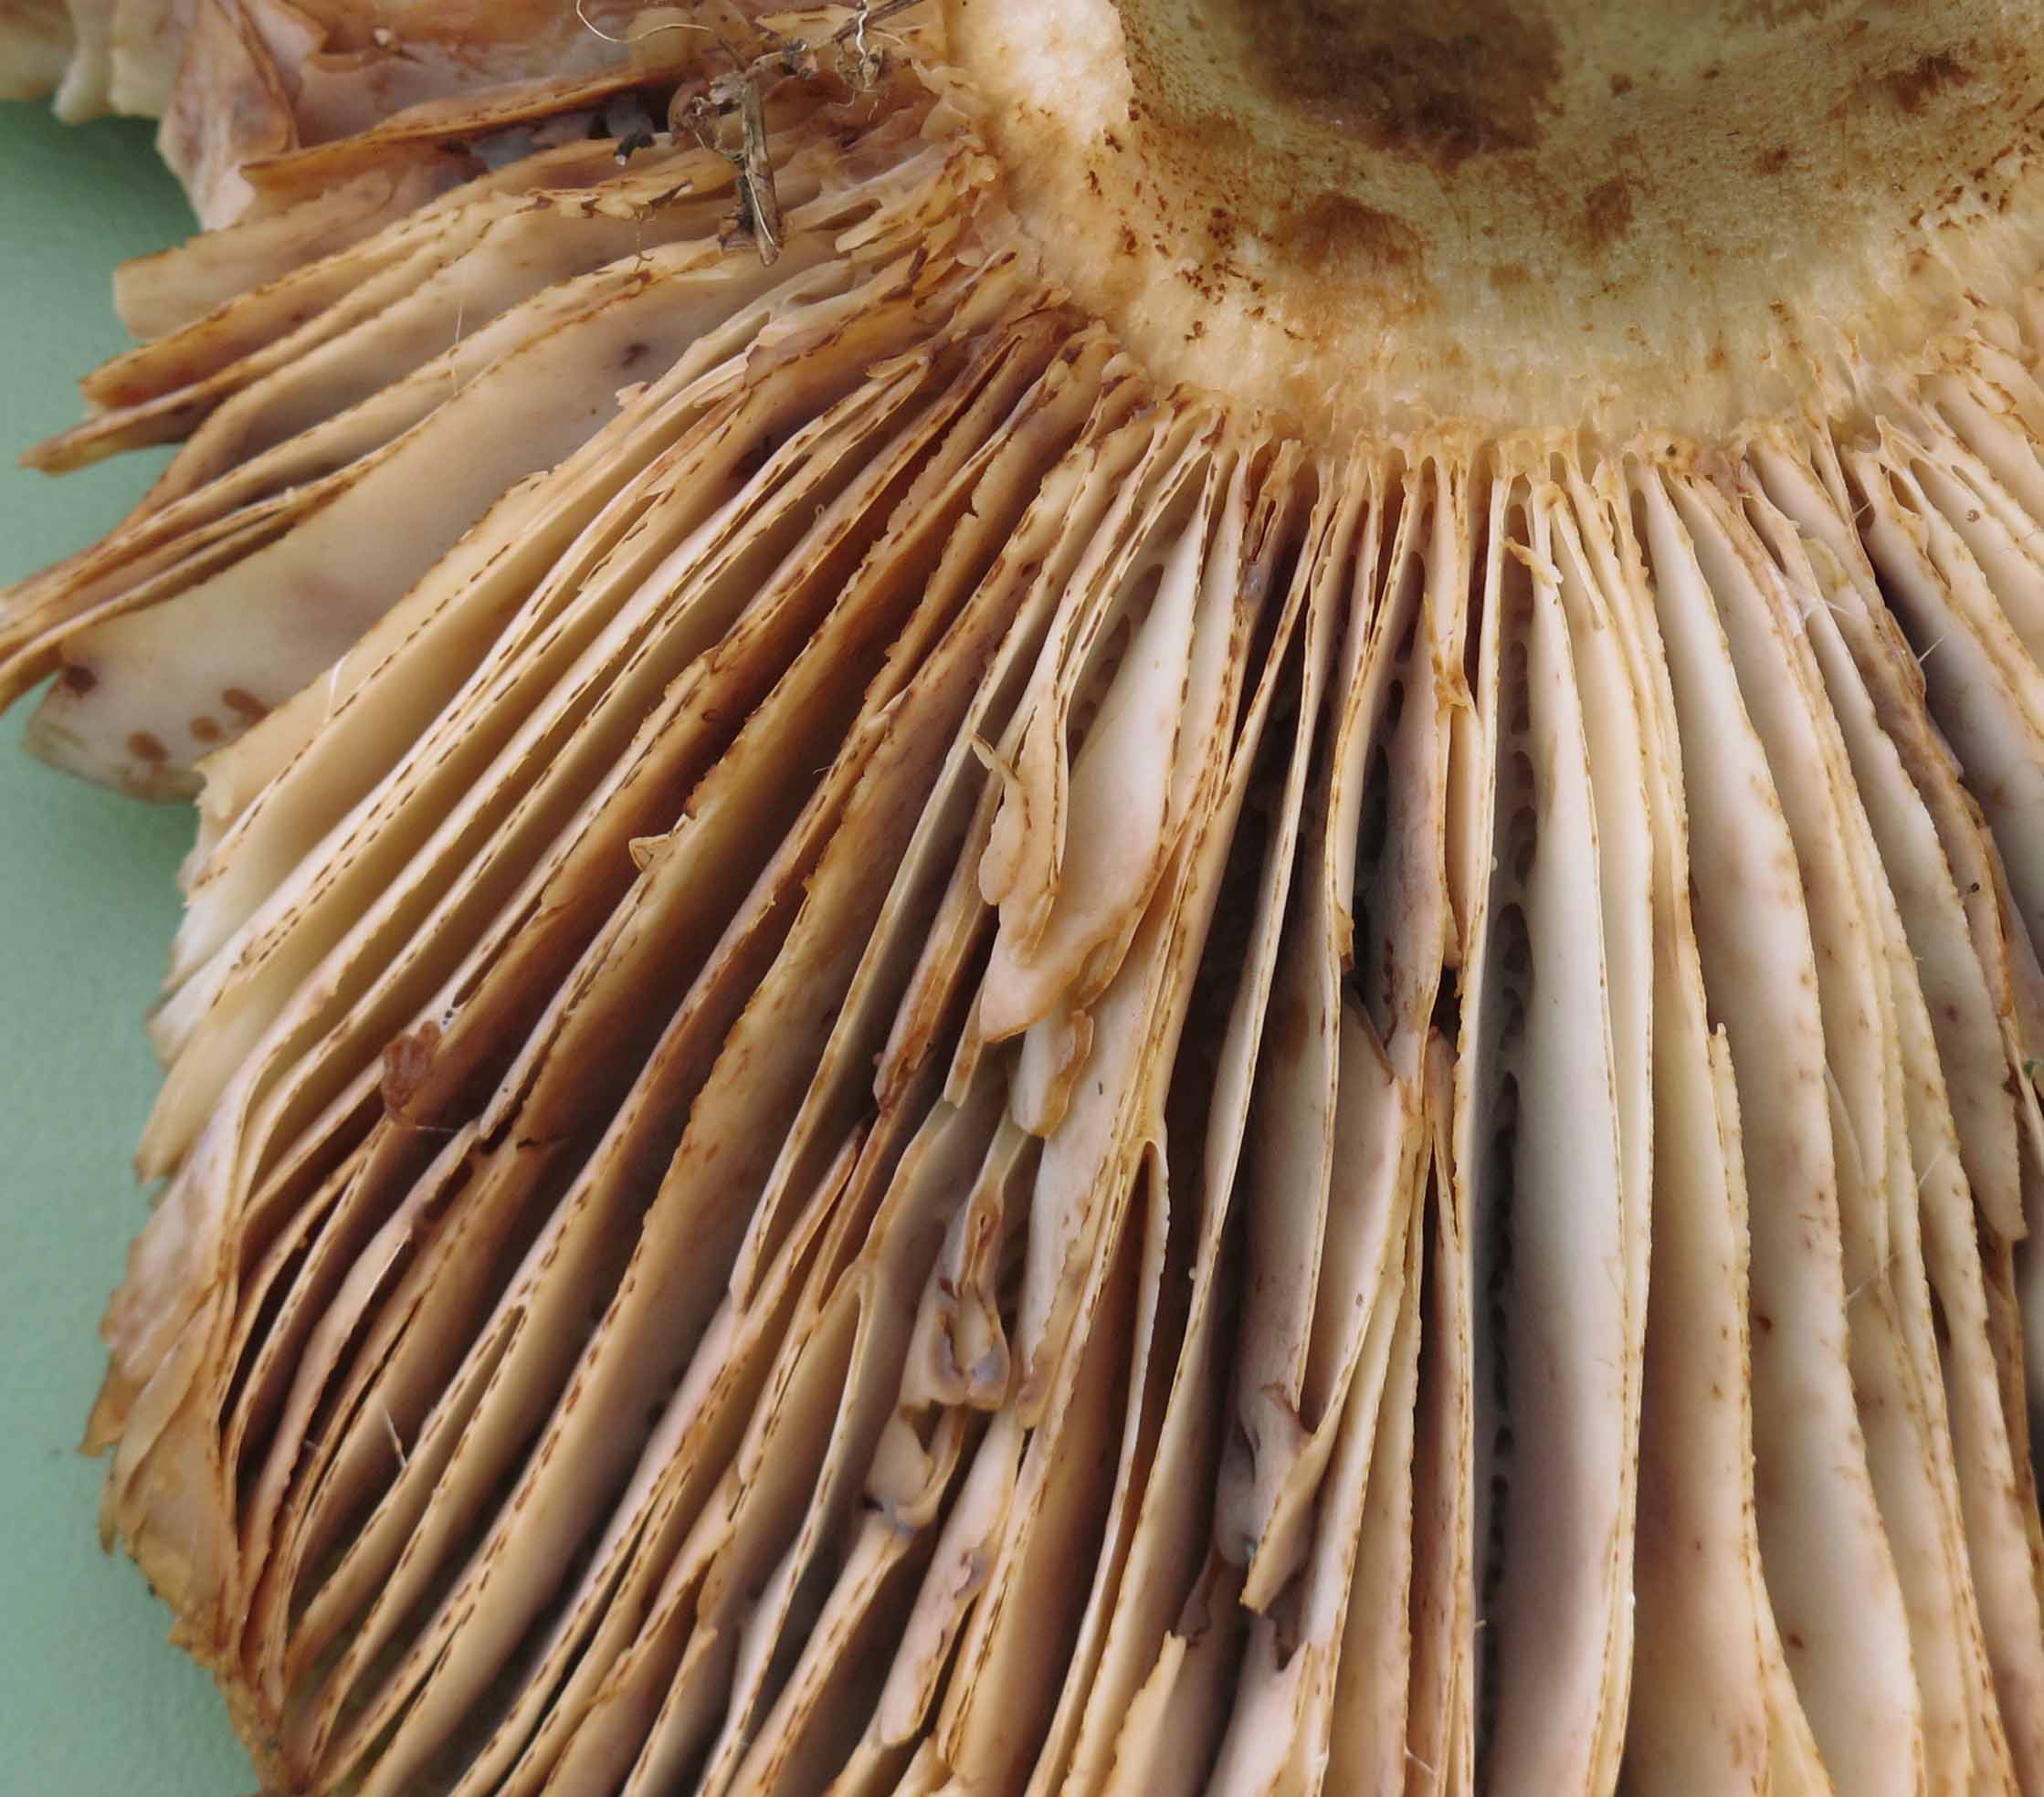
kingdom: Fungi
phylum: Basidiomycota
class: Agaricomycetes
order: Russulales
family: Russulaceae
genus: Russula
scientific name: Russula illota
